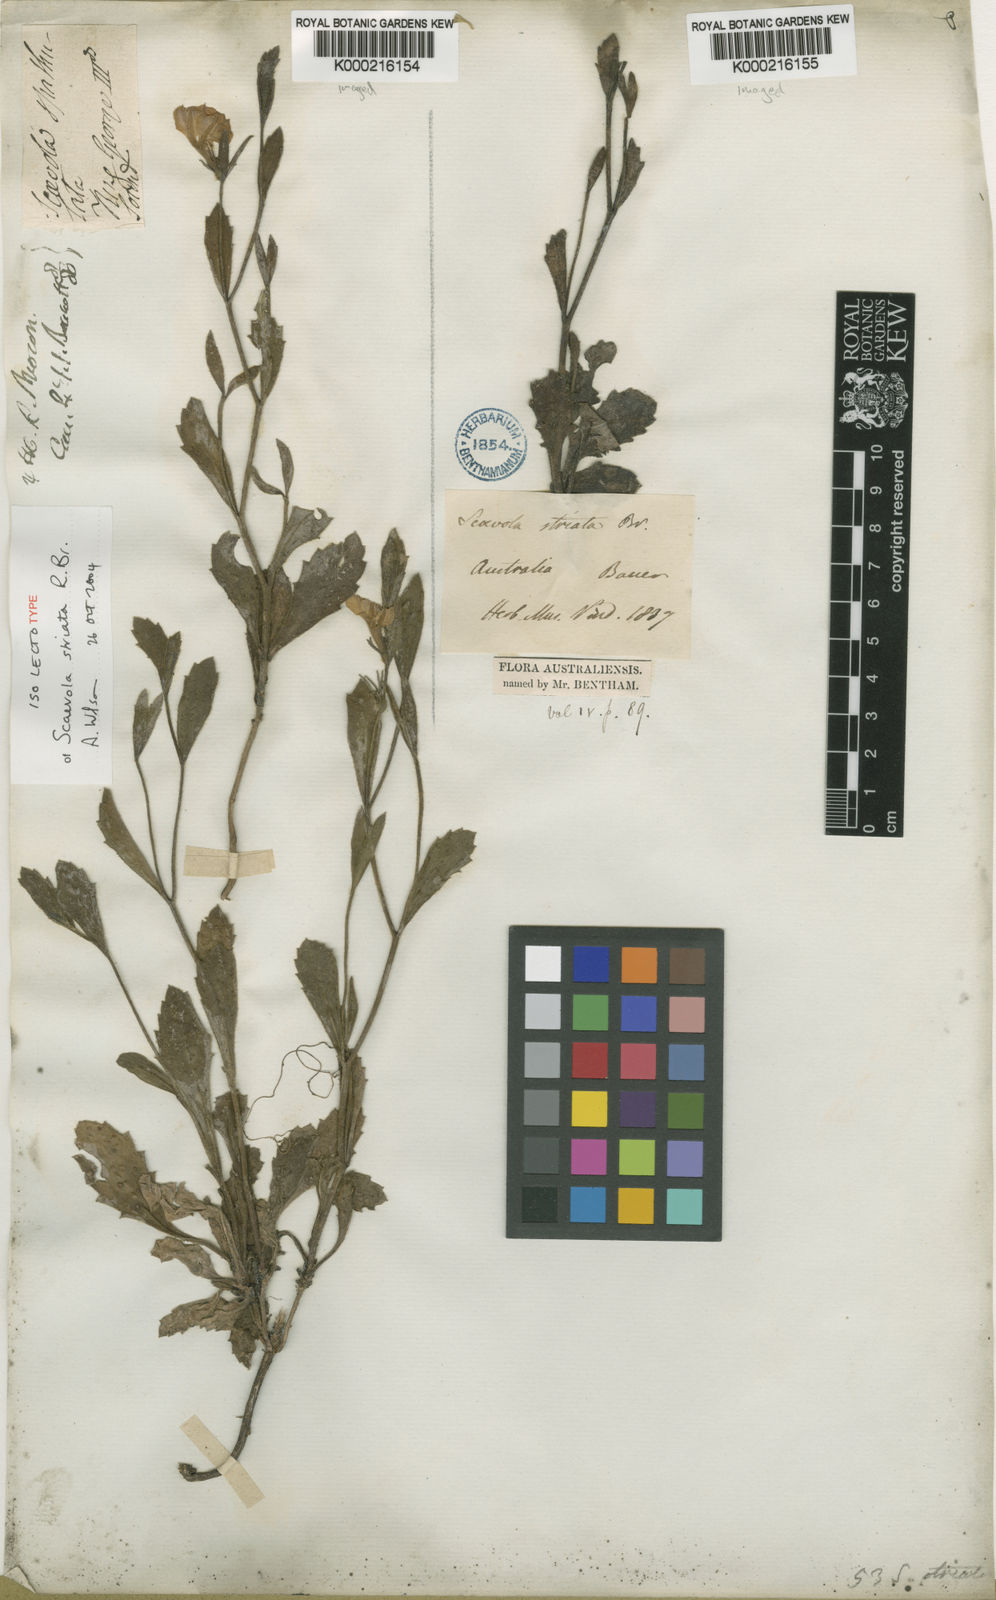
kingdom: Plantae
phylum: Tracheophyta
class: Magnoliopsida
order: Asterales
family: Goodeniaceae
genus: Scaevola
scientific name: Scaevola striata
